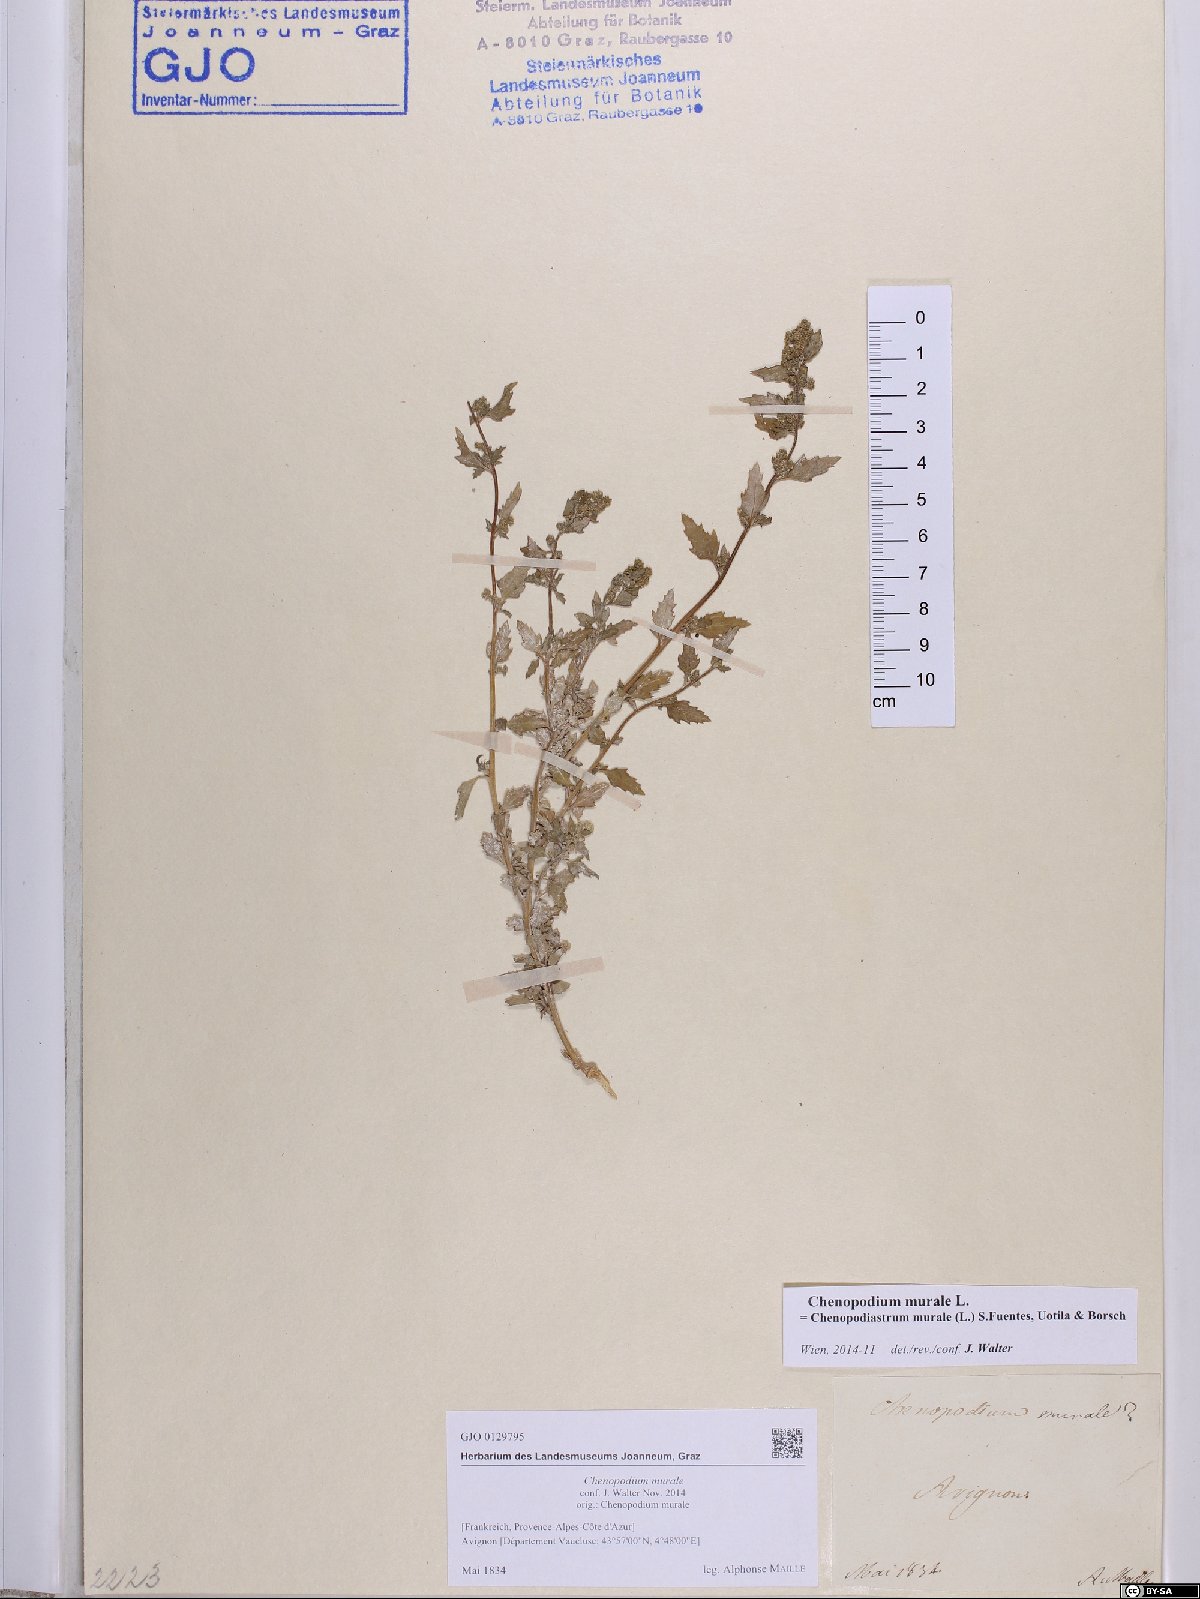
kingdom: Plantae
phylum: Tracheophyta
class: Magnoliopsida
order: Caryophyllales
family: Amaranthaceae
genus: Chenopodiastrum
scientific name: Chenopodiastrum murale
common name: Sowbane
